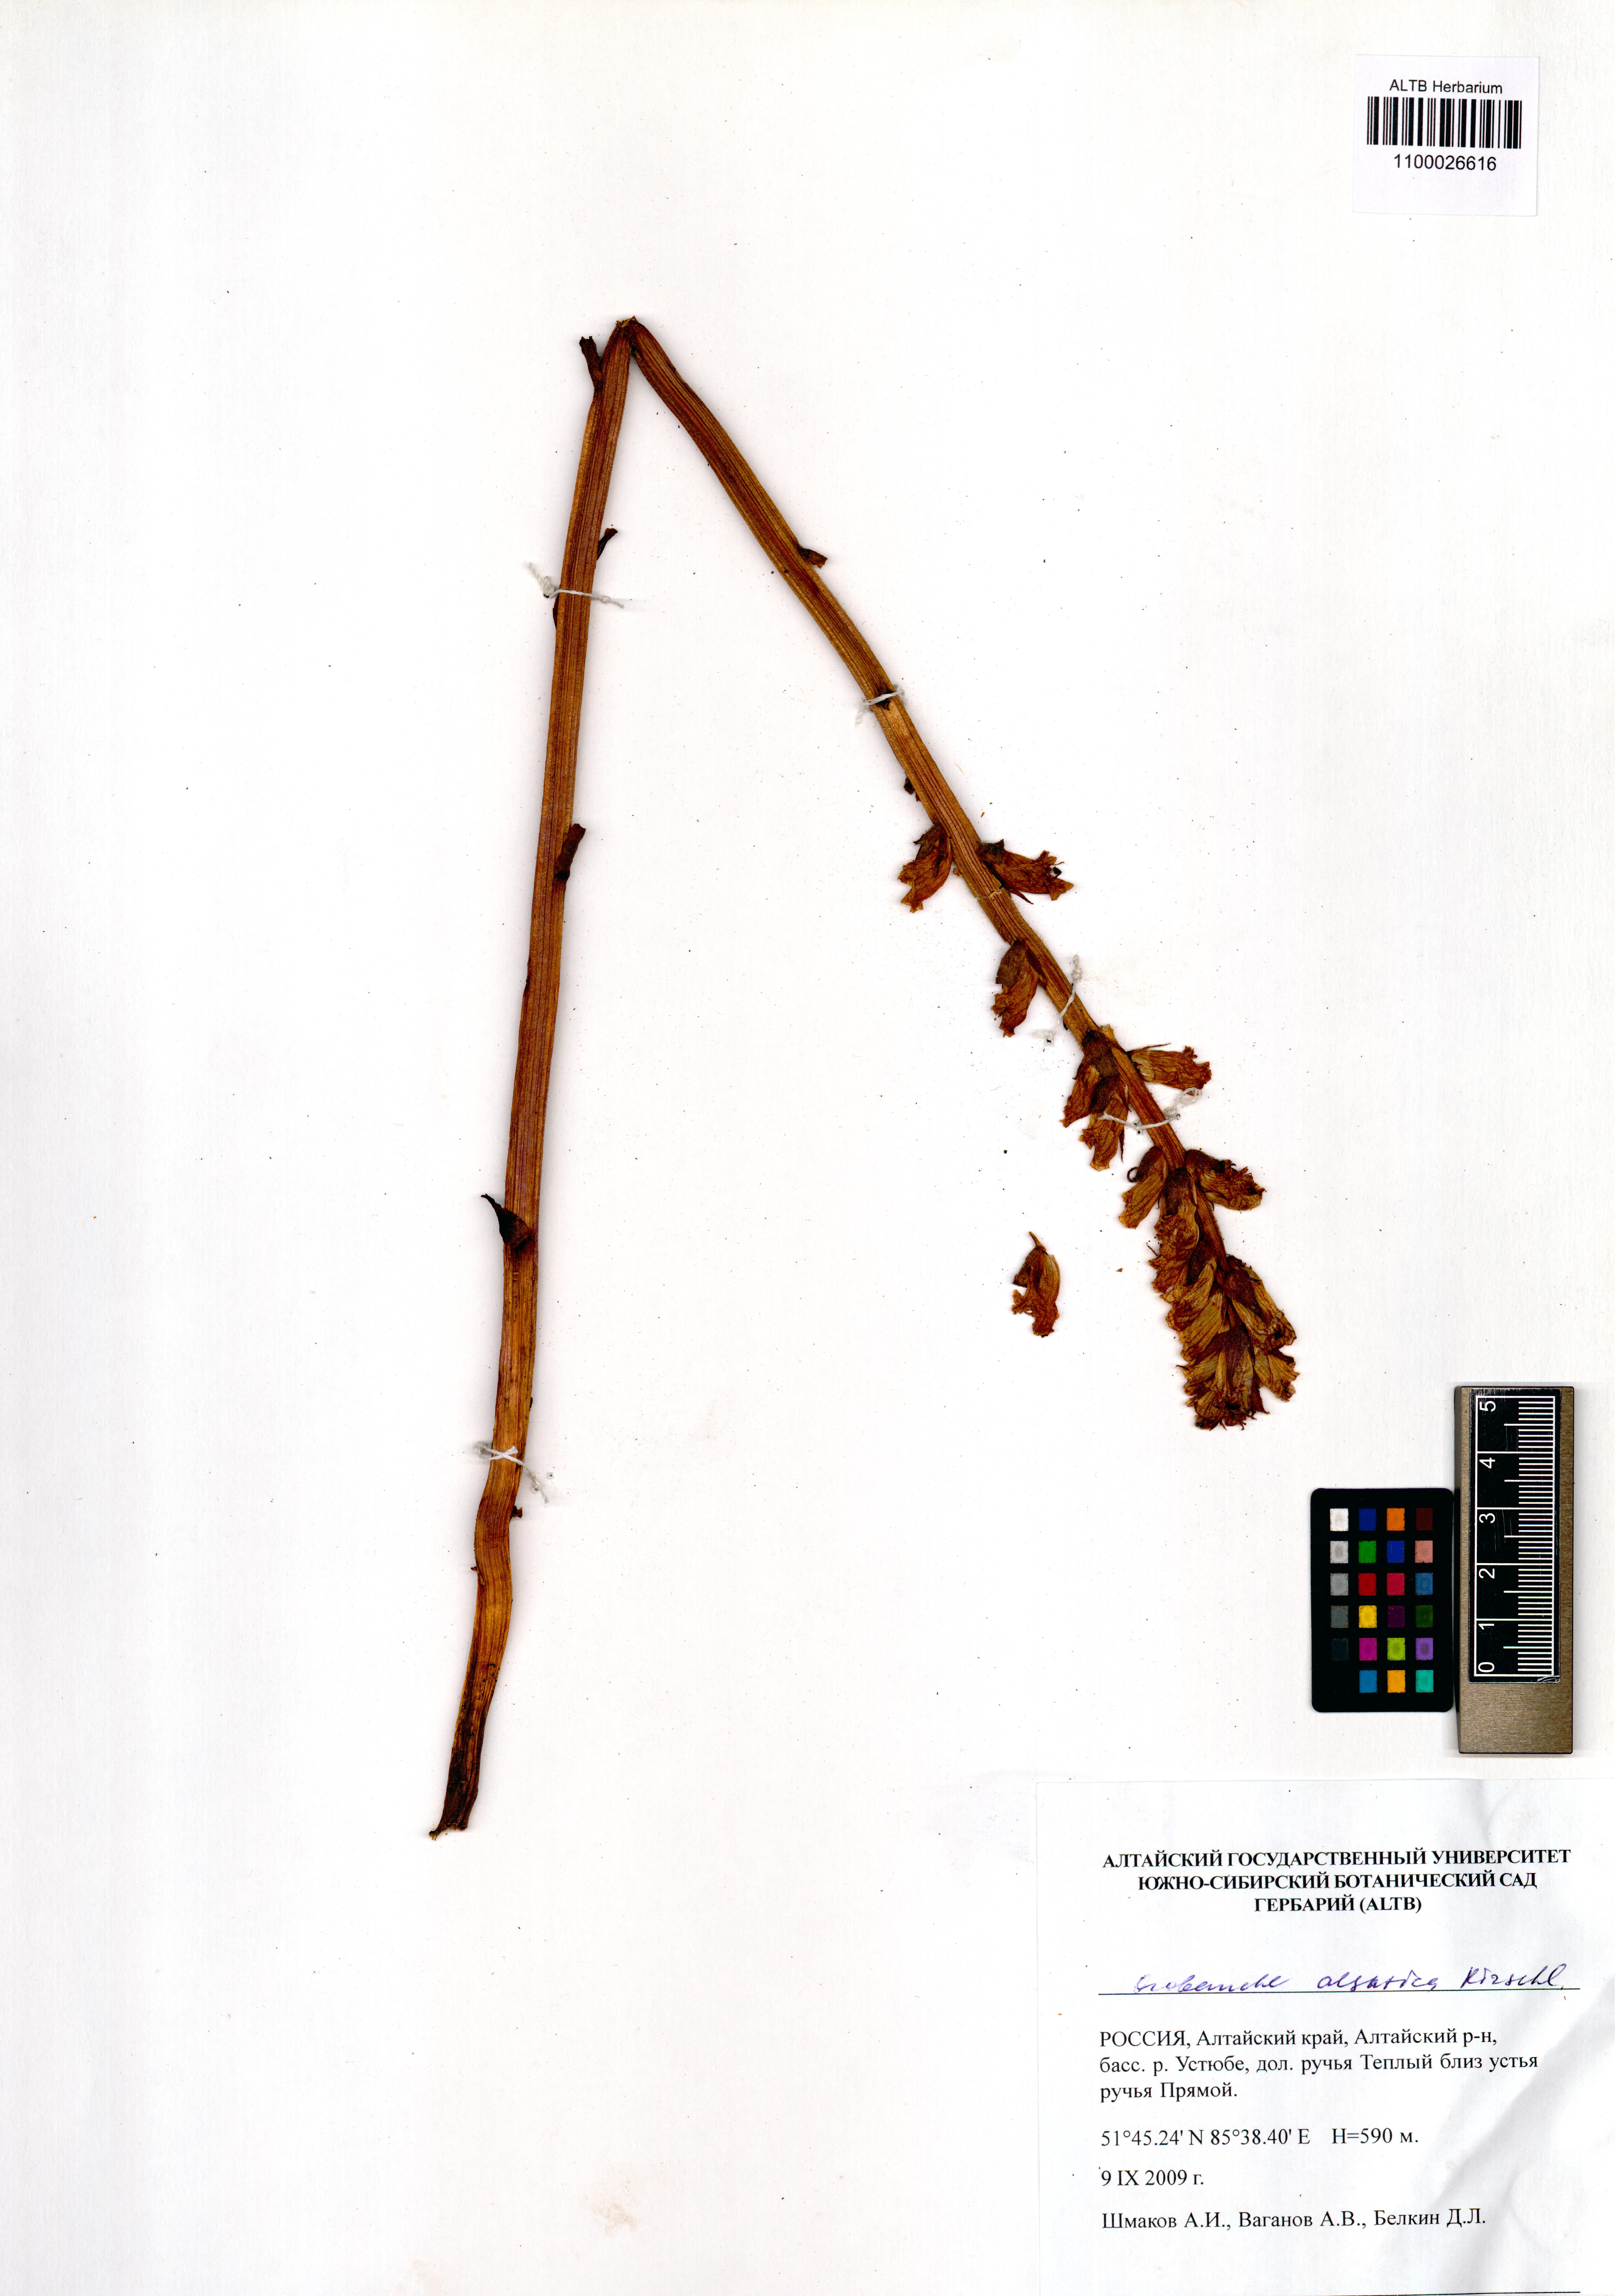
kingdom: Plantae
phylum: Tracheophyta
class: Magnoliopsida
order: Lamiales
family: Orobanchaceae
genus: Orobanche
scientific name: Orobanche alsatica
